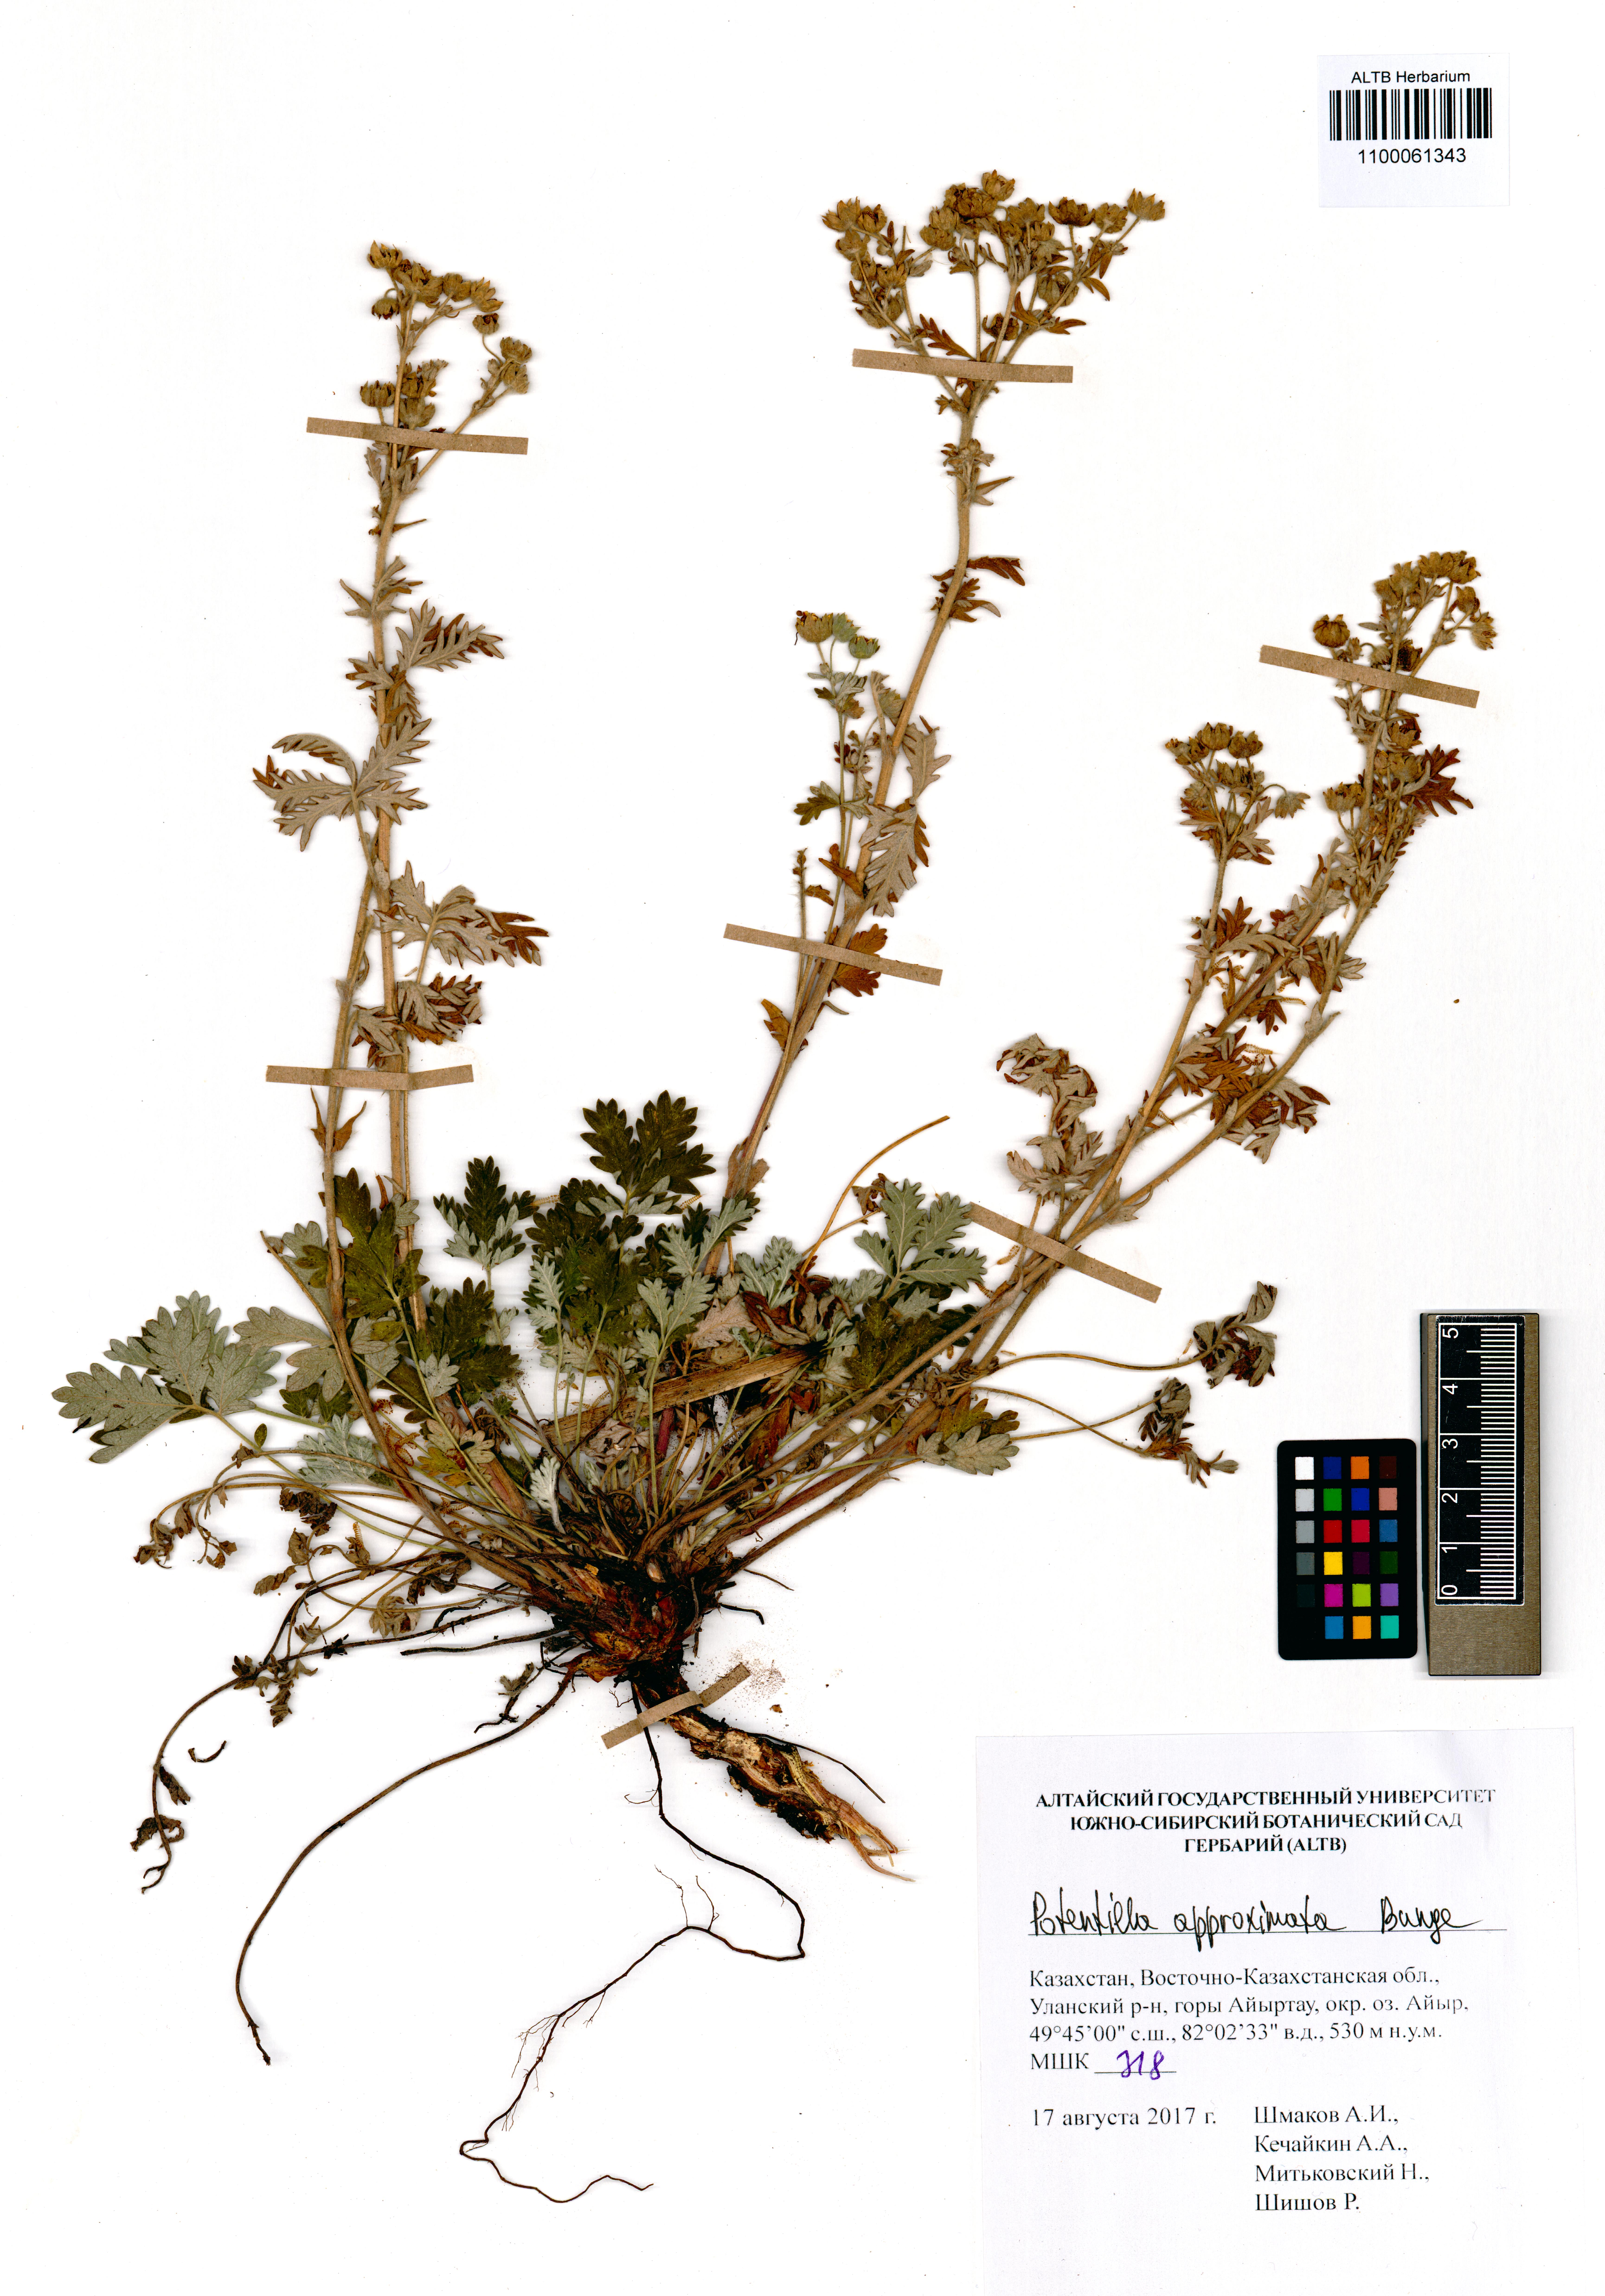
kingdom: Plantae
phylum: Tracheophyta
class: Magnoliopsida
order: Rosales
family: Rosaceae
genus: Potentilla
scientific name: Potentilla conferta
